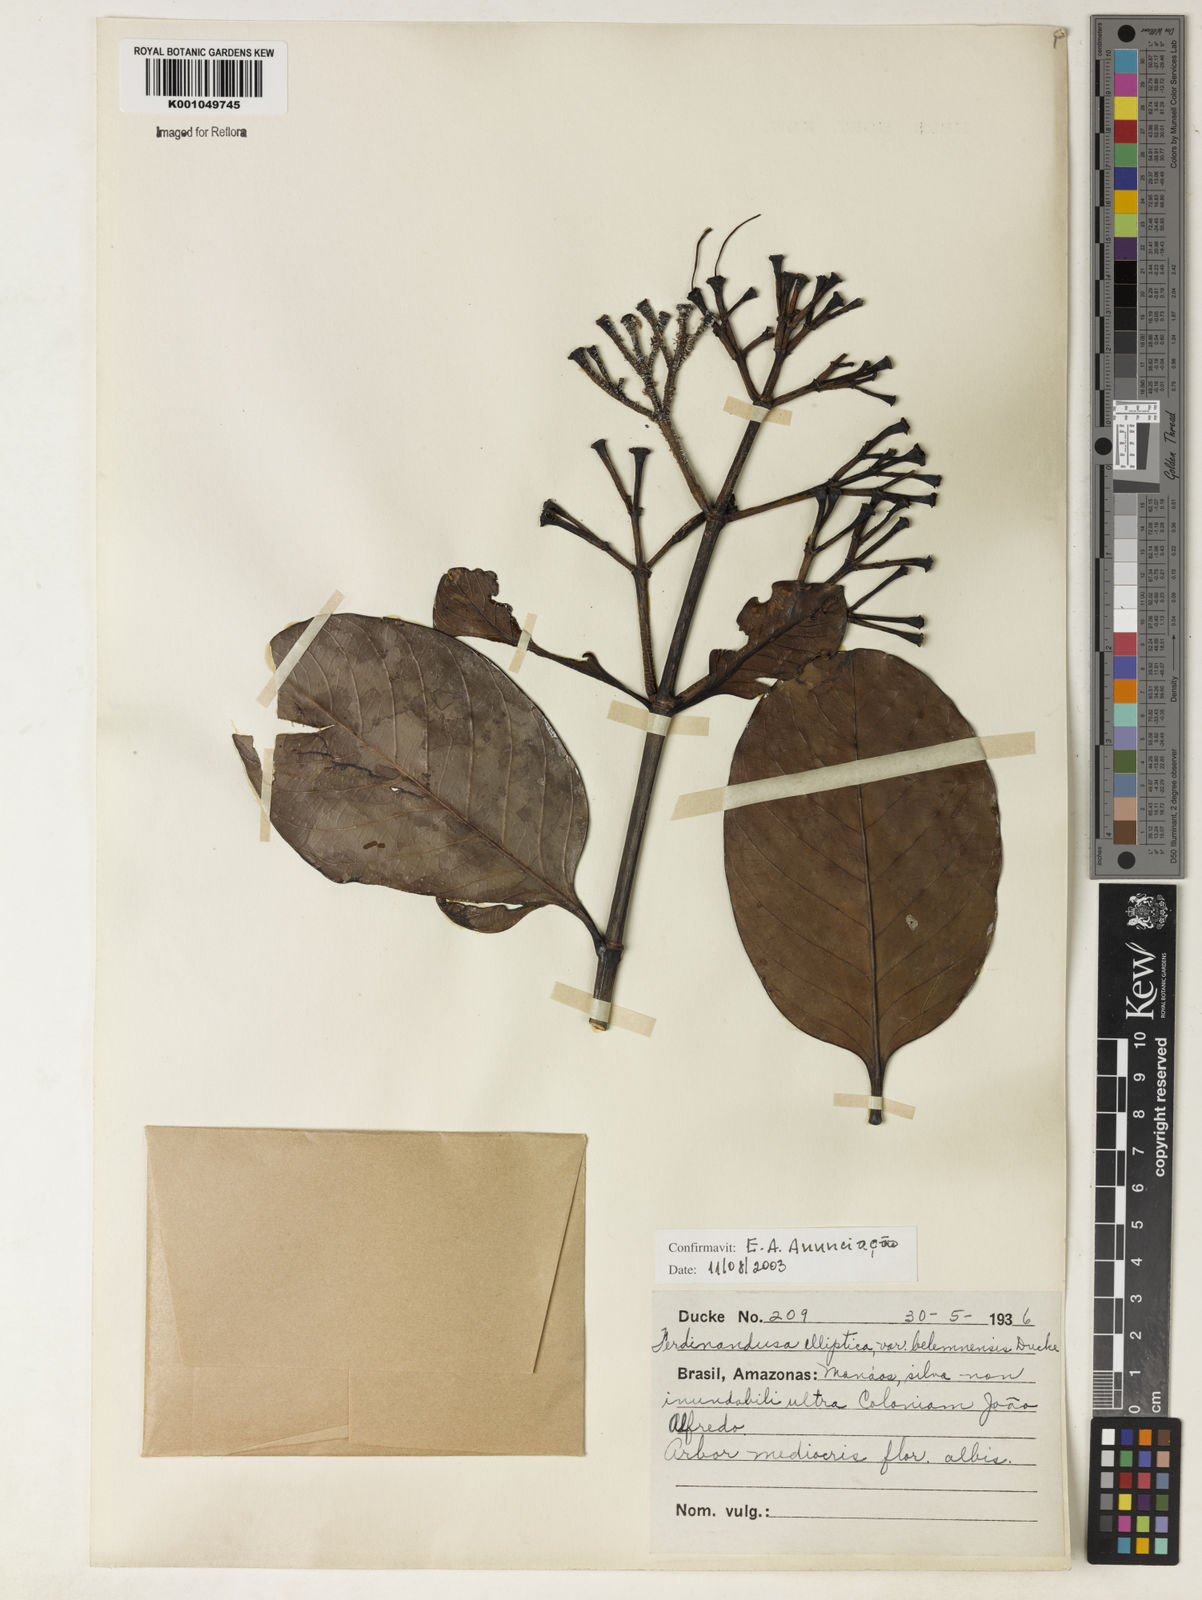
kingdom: Plantae
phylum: Tracheophyta
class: Magnoliopsida
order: Gentianales
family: Rubiaceae
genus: Ferdinandusa
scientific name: Ferdinandusa elliptica
